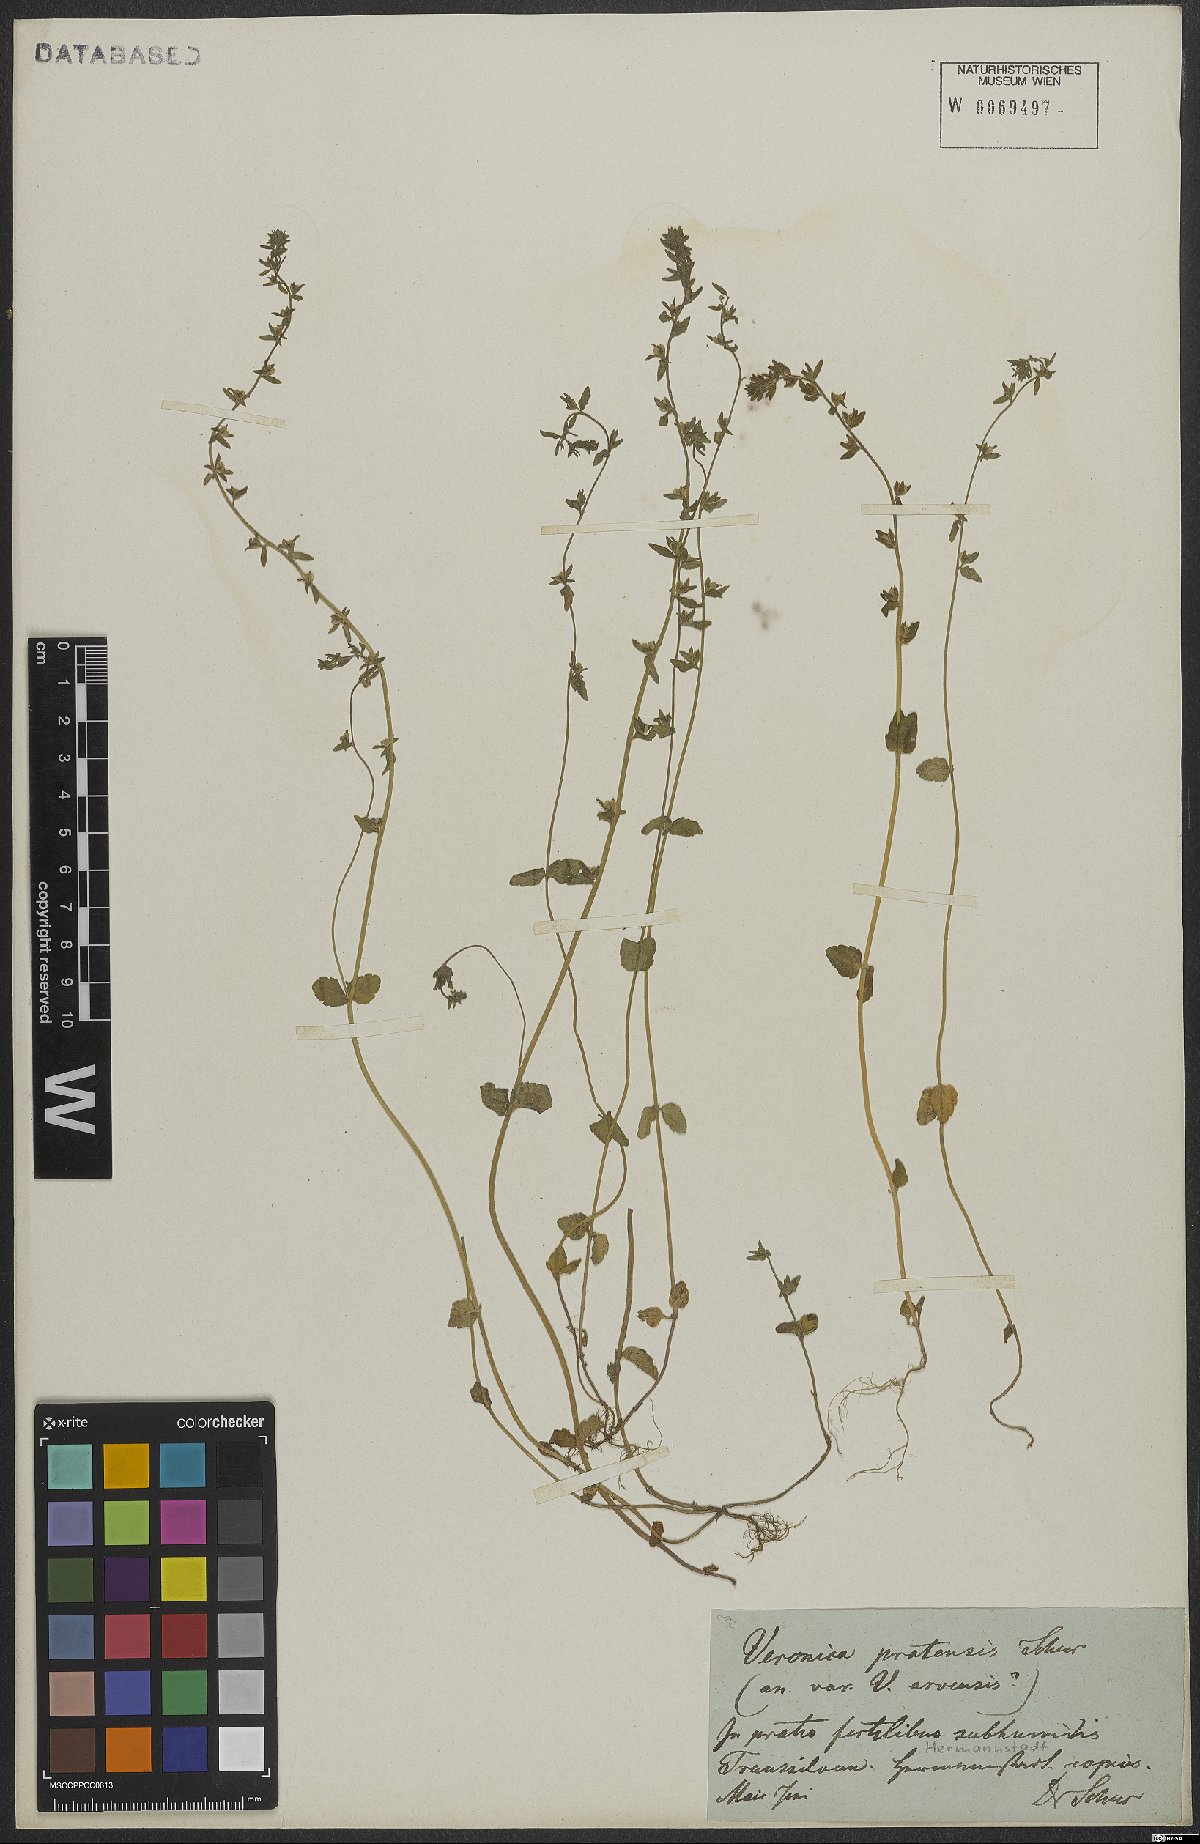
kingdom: Plantae
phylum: Tracheophyta
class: Magnoliopsida
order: Lamiales
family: Plantaginaceae
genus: Veronica
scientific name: Veronica arvensis
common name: Corn speedwell
